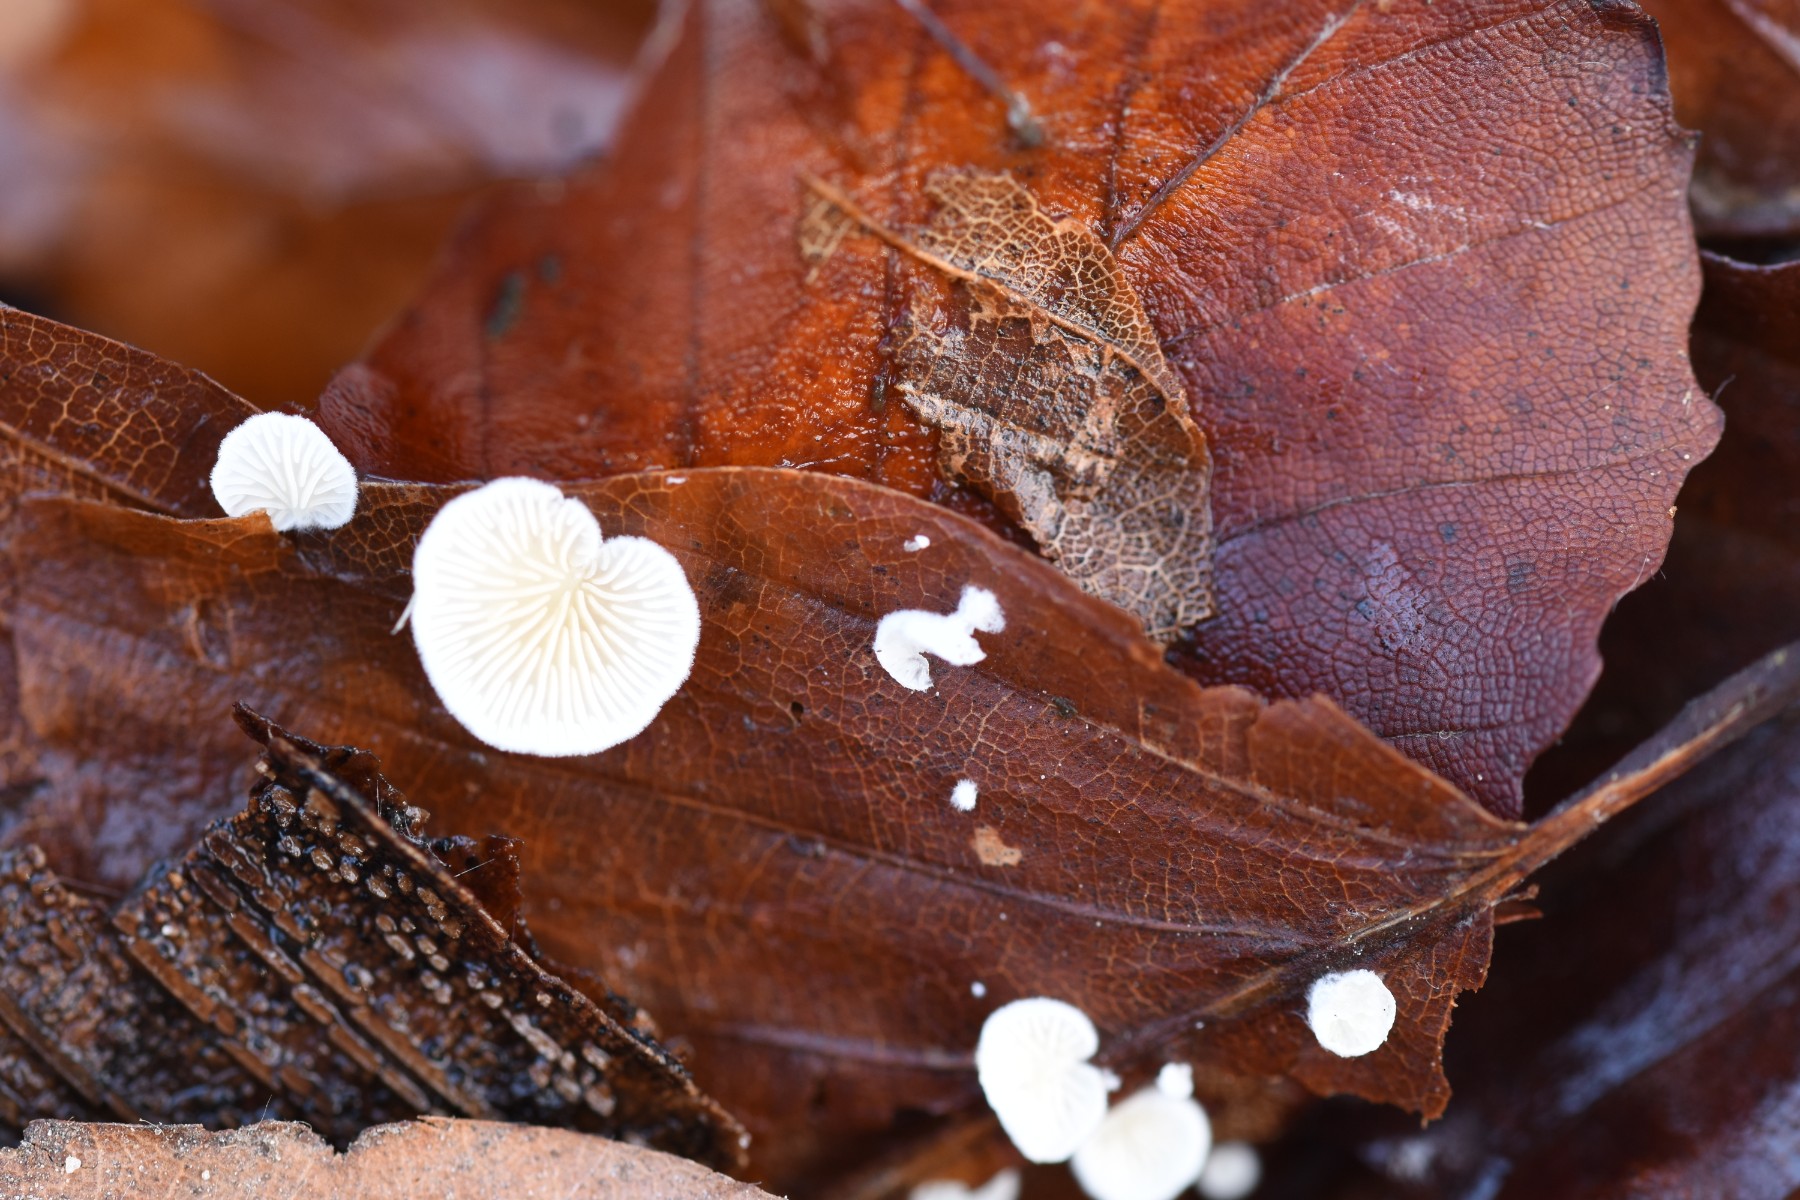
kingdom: Fungi
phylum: Basidiomycota
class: Agaricomycetes
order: Agaricales
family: Crepidotaceae
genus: Crepidotus
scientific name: Crepidotus epibryus
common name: førne-muslingesvamp
